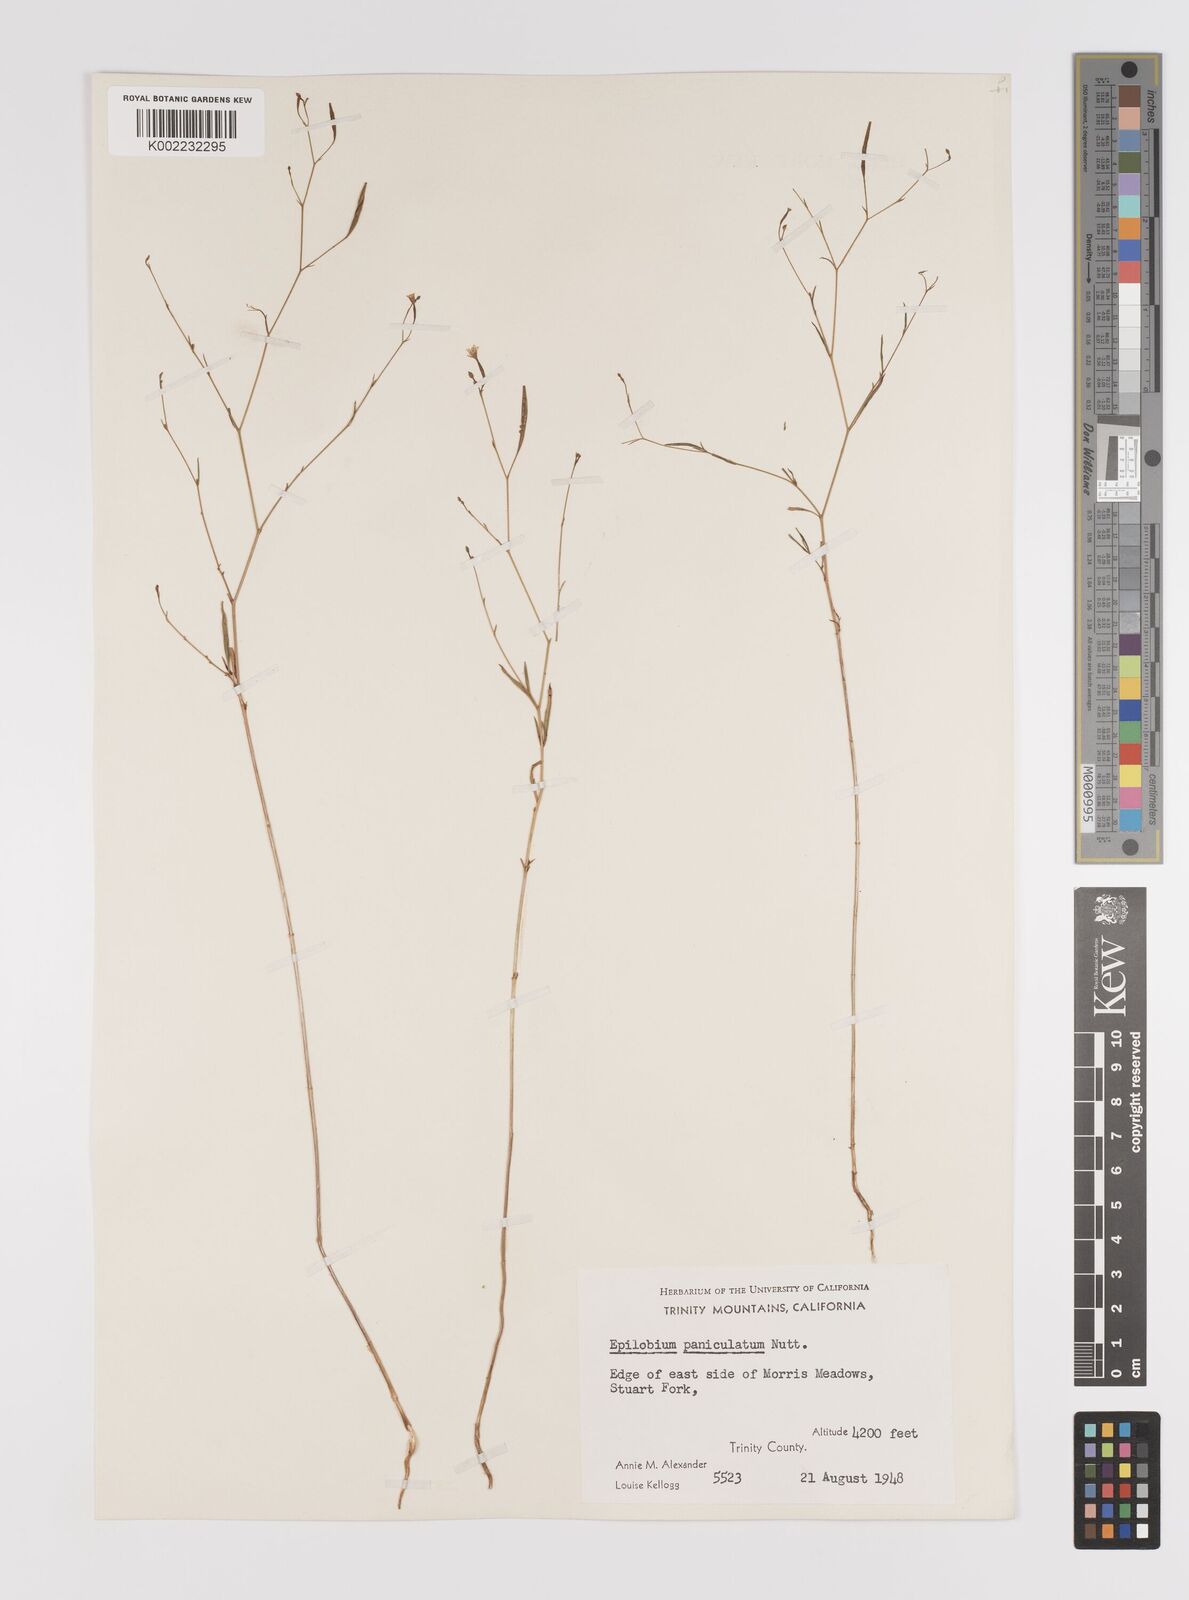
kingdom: Plantae
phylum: Tracheophyta
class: Magnoliopsida
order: Myrtales
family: Onagraceae
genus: Epilobium
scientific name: Epilobium
